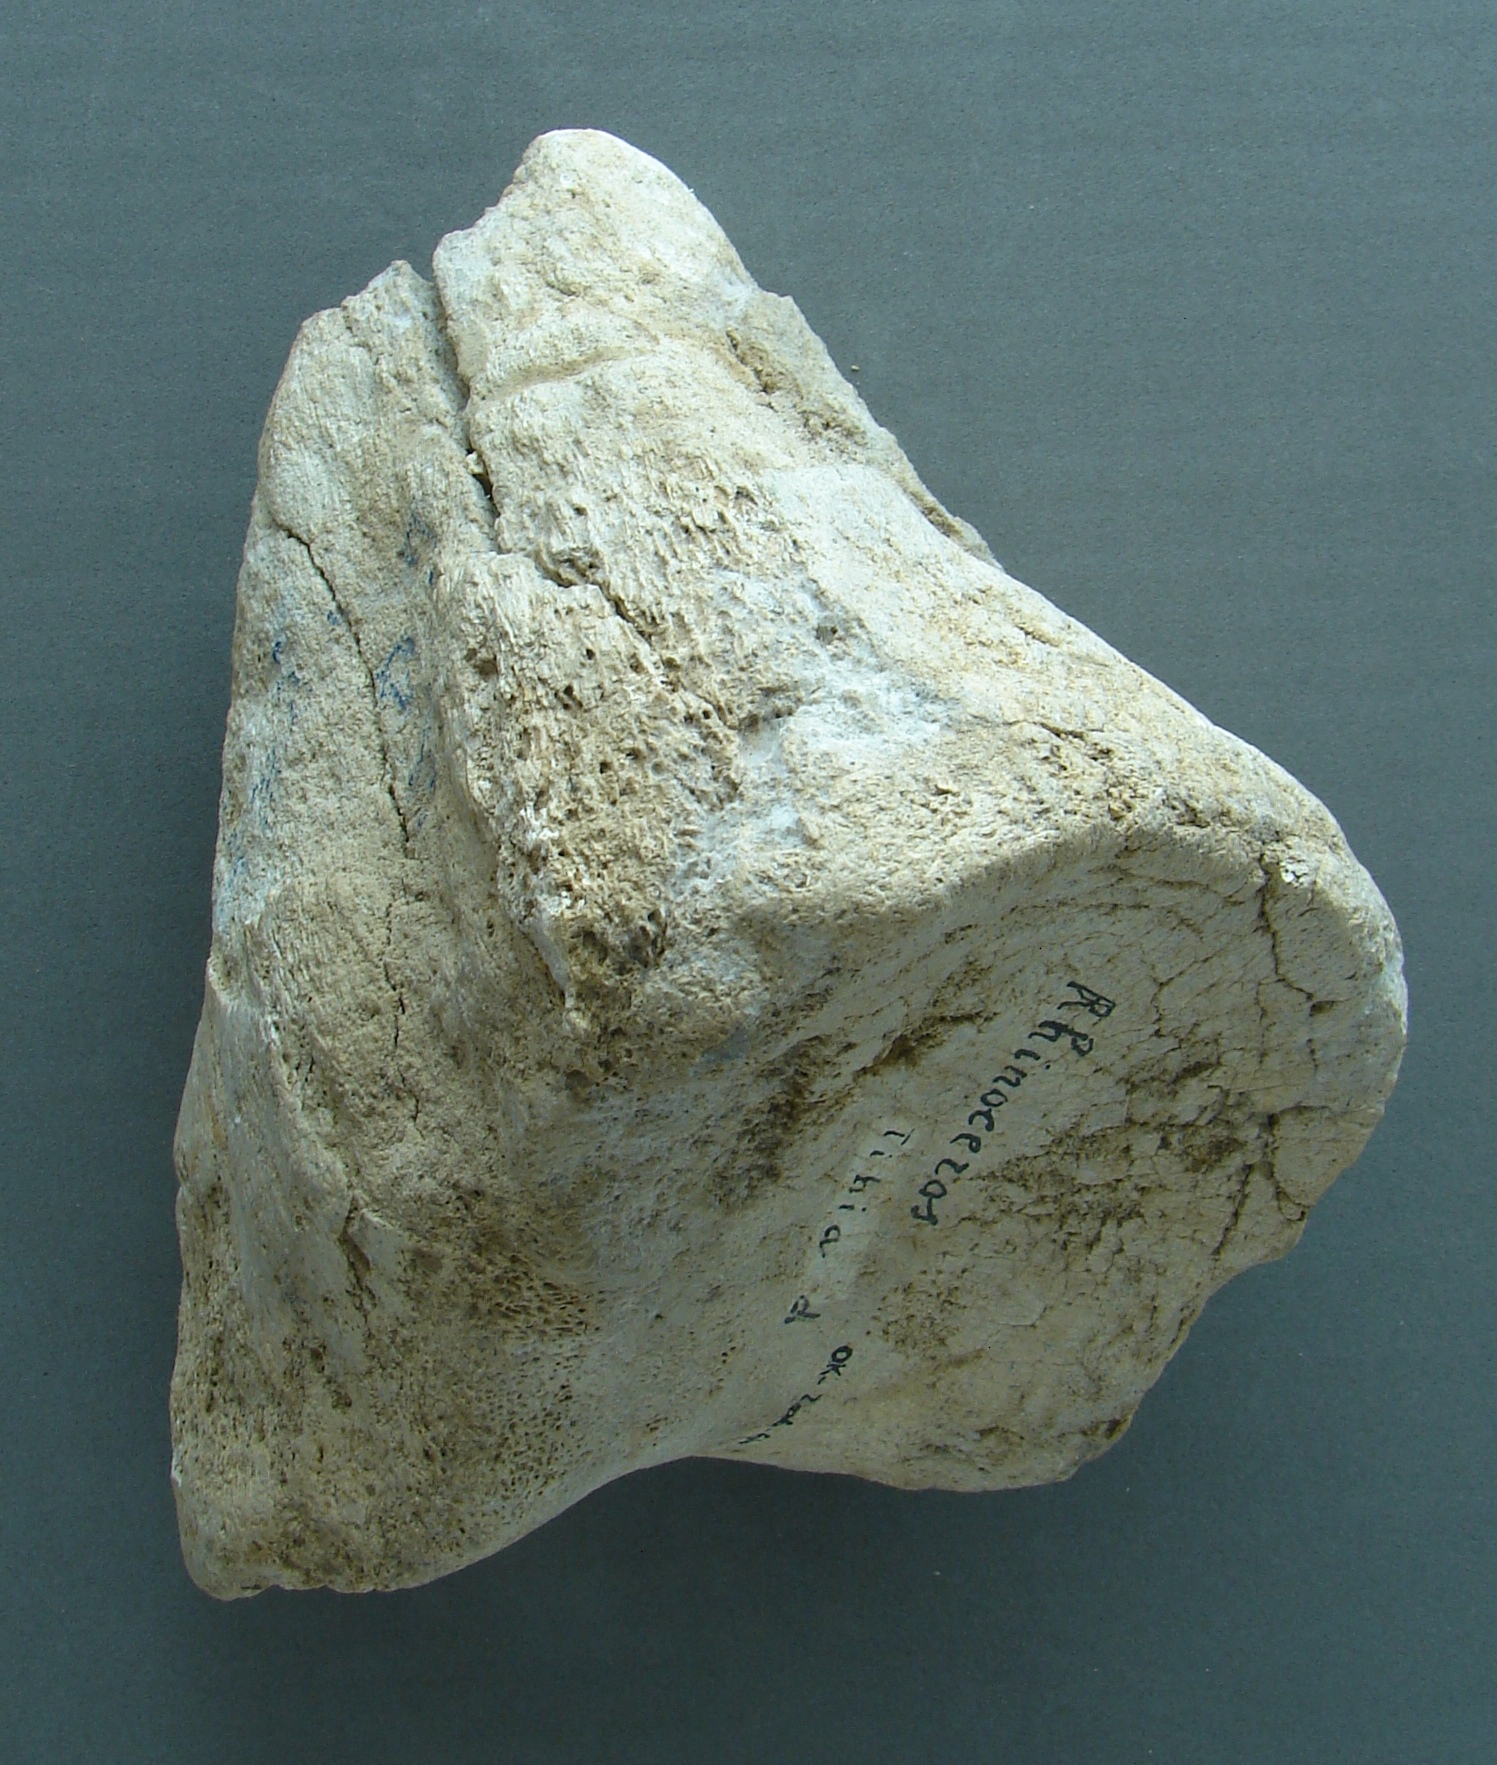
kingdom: Animalia
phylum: Chordata
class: Mammalia
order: Perissodactyla
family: Rhinocerotidae
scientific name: Rhinocerotidae
